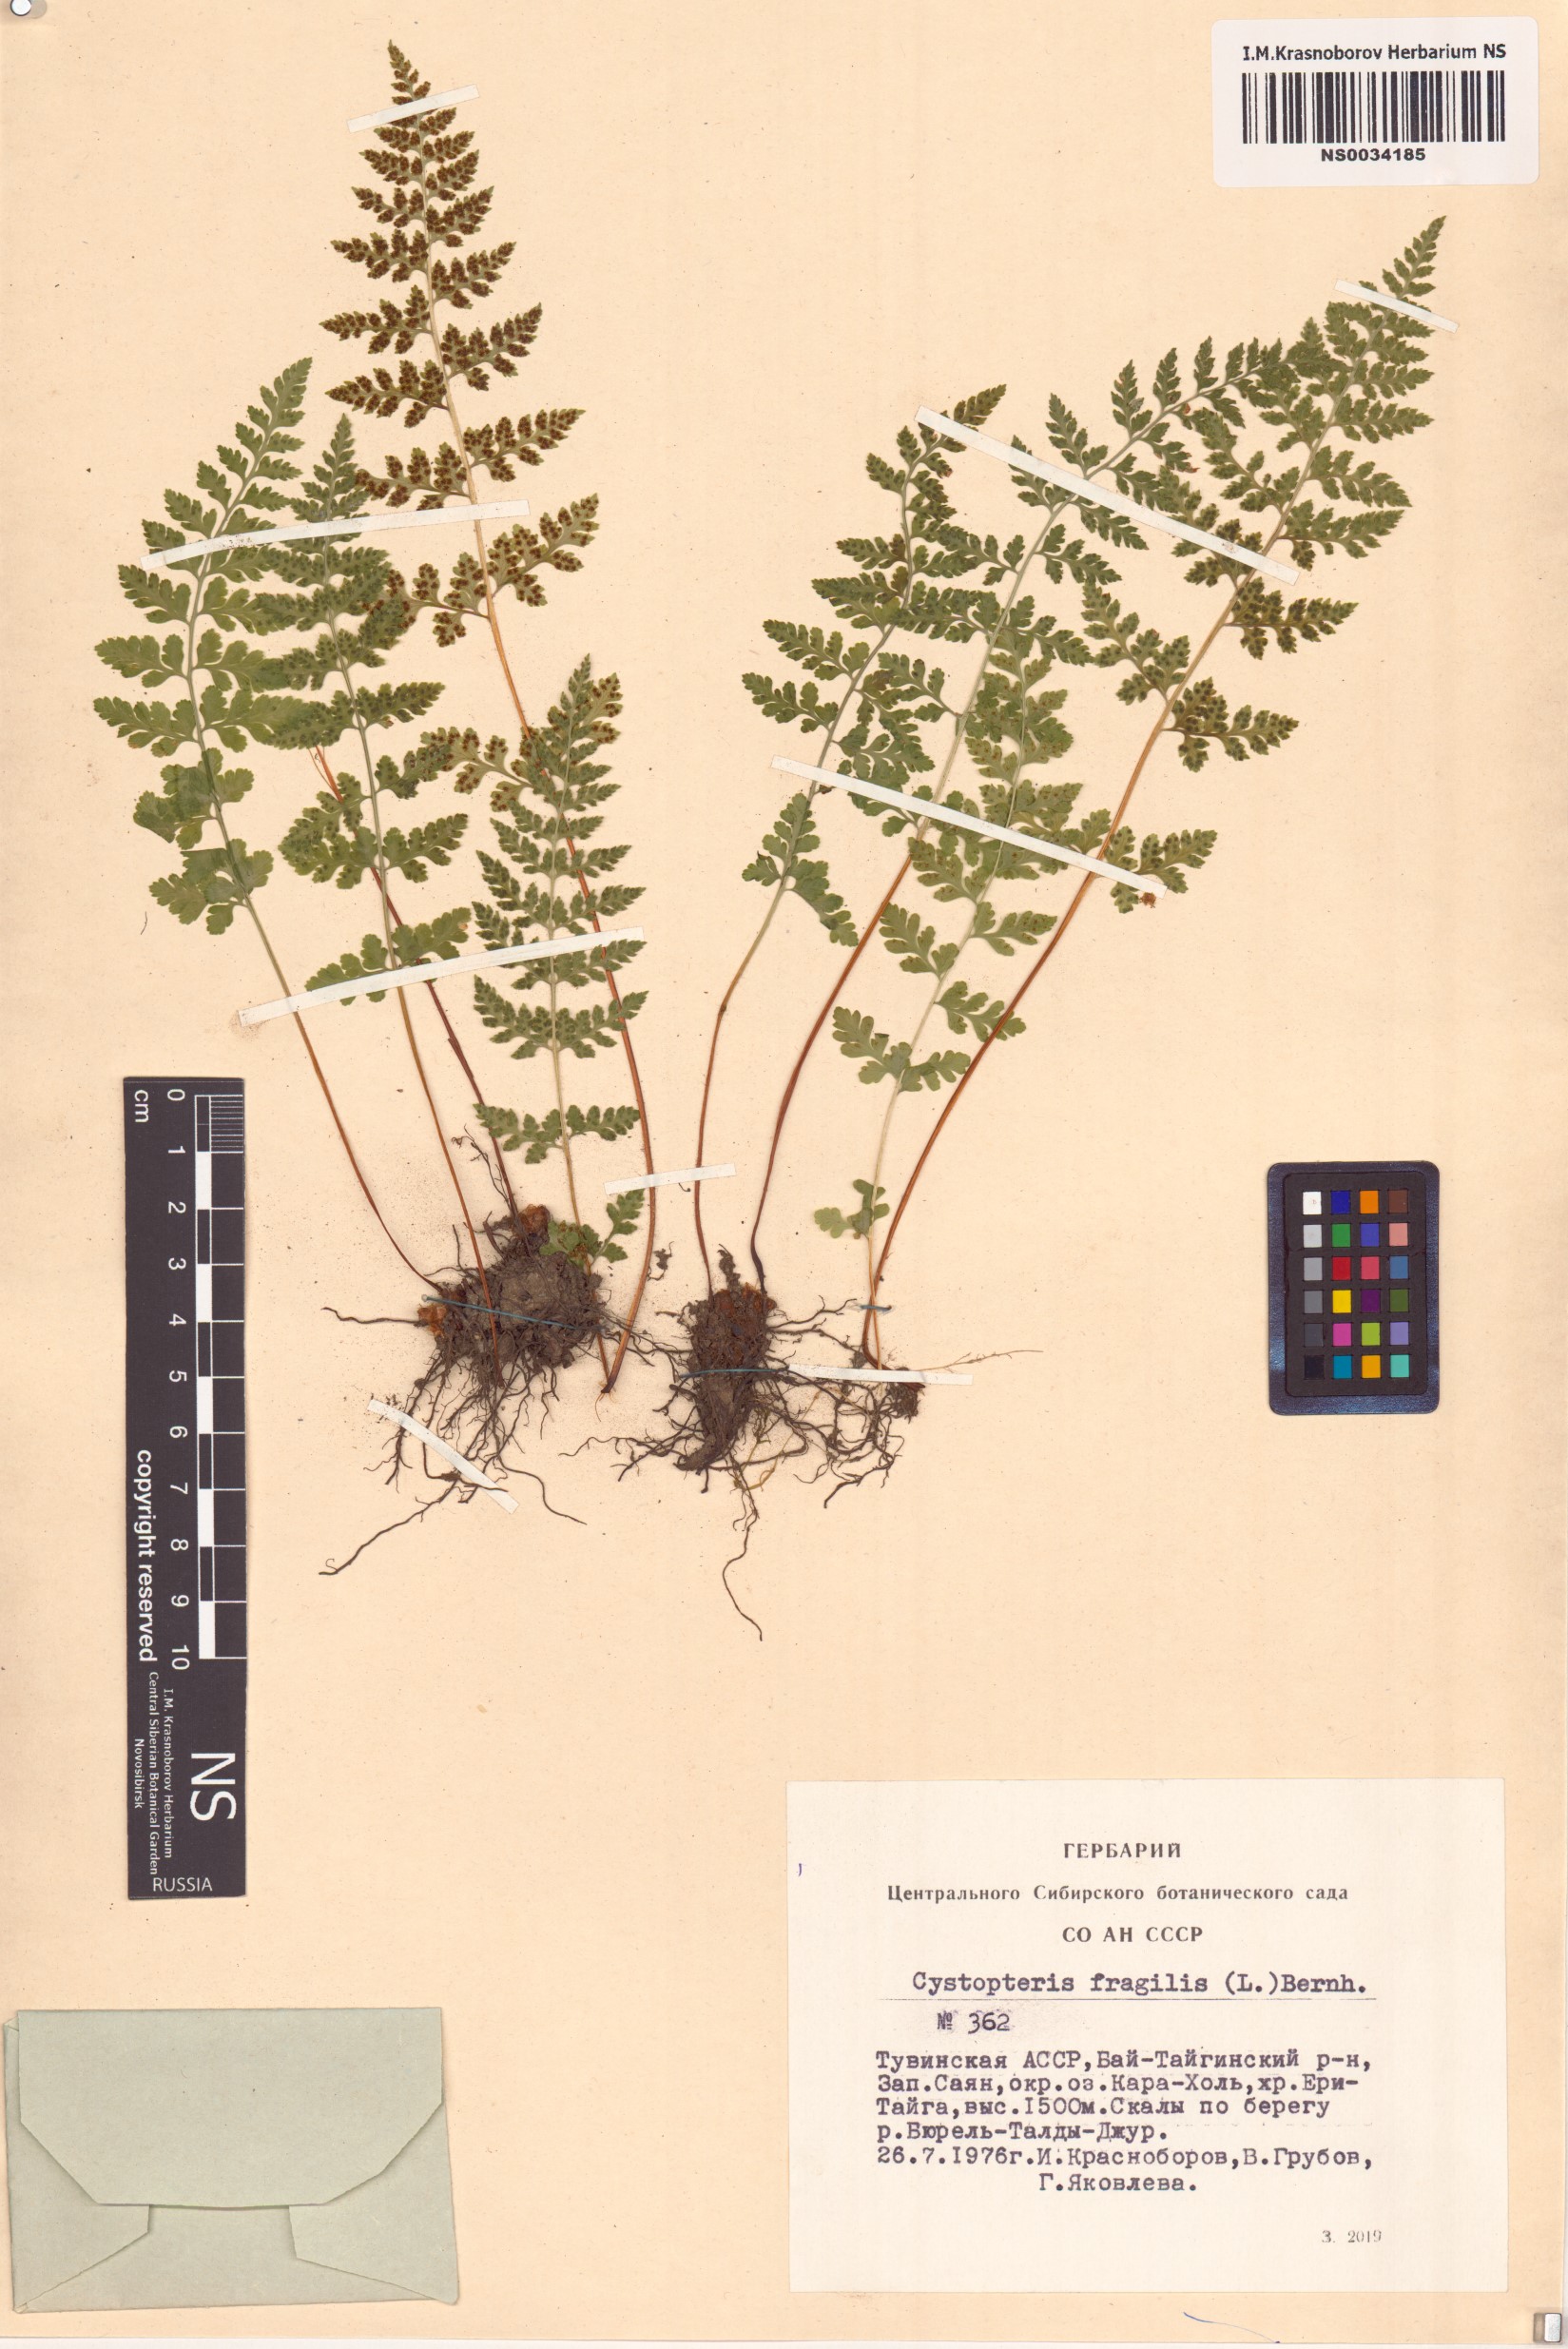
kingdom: Plantae
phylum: Tracheophyta
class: Polypodiopsida
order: Polypodiales
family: Cystopteridaceae
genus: Cystopteris
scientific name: Cystopteris fragilis
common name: Brittle bladder fern
